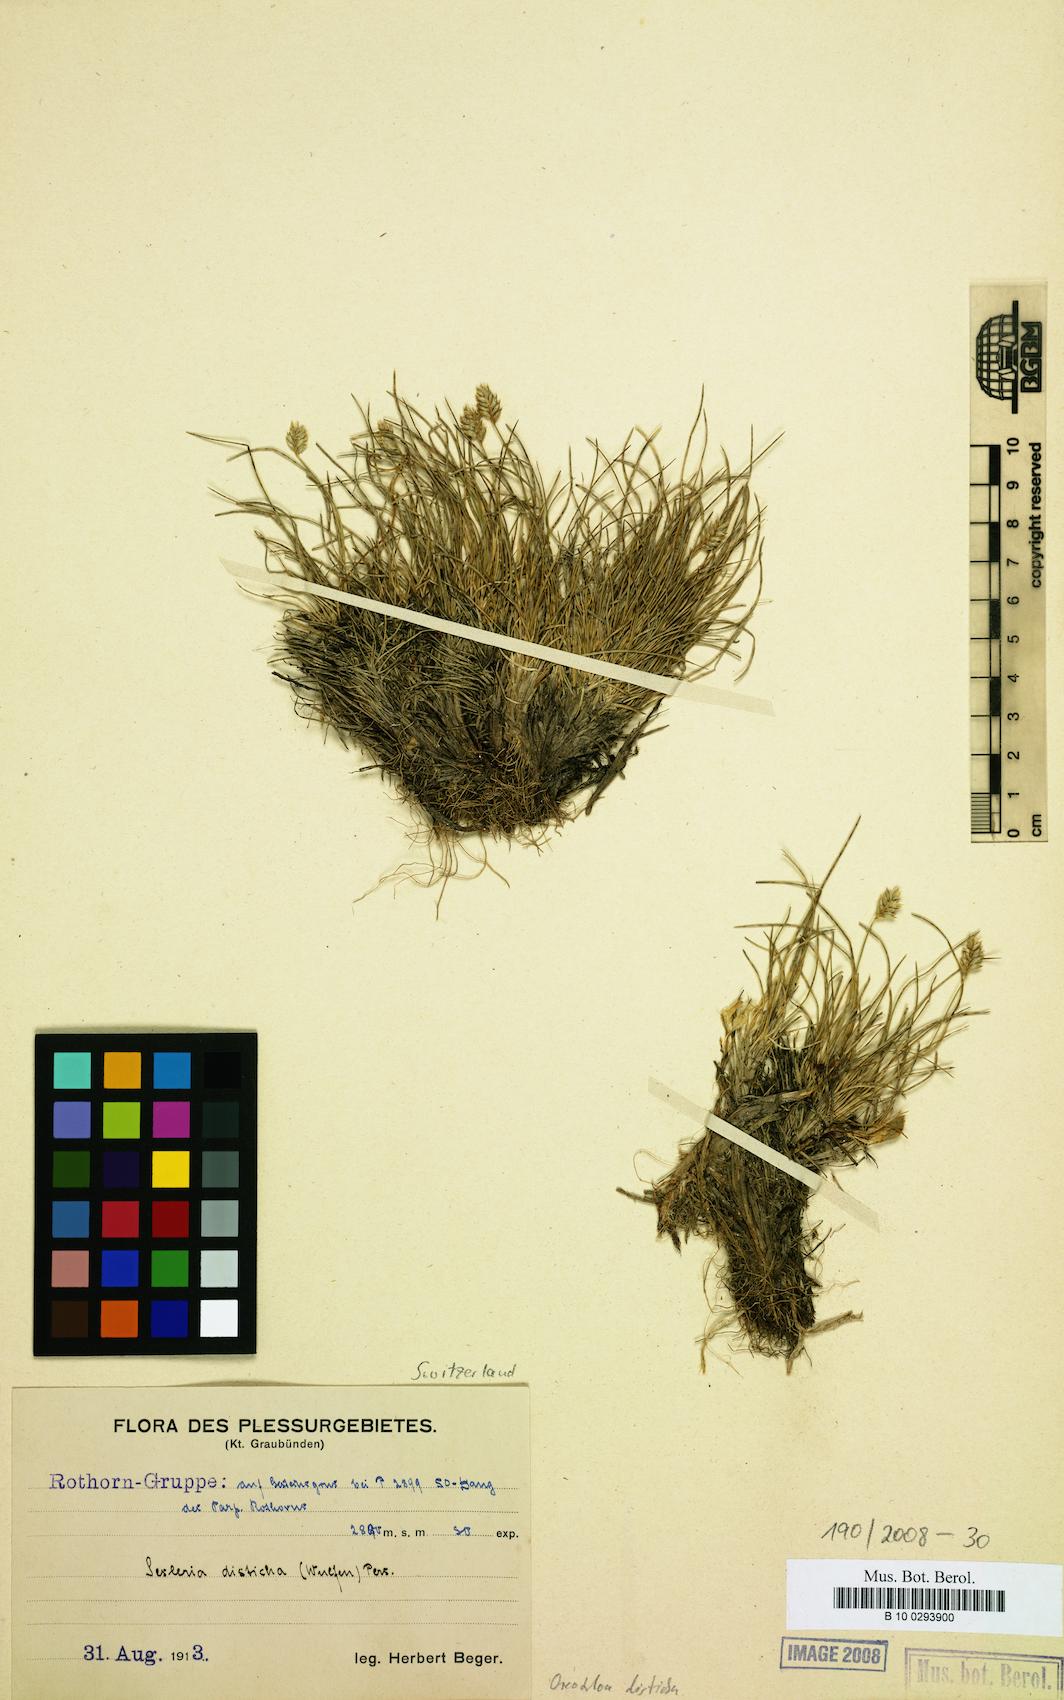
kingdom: Plantae
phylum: Tracheophyta
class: Liliopsida
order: Poales
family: Poaceae
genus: Oreochloa
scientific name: Oreochloa disticha
